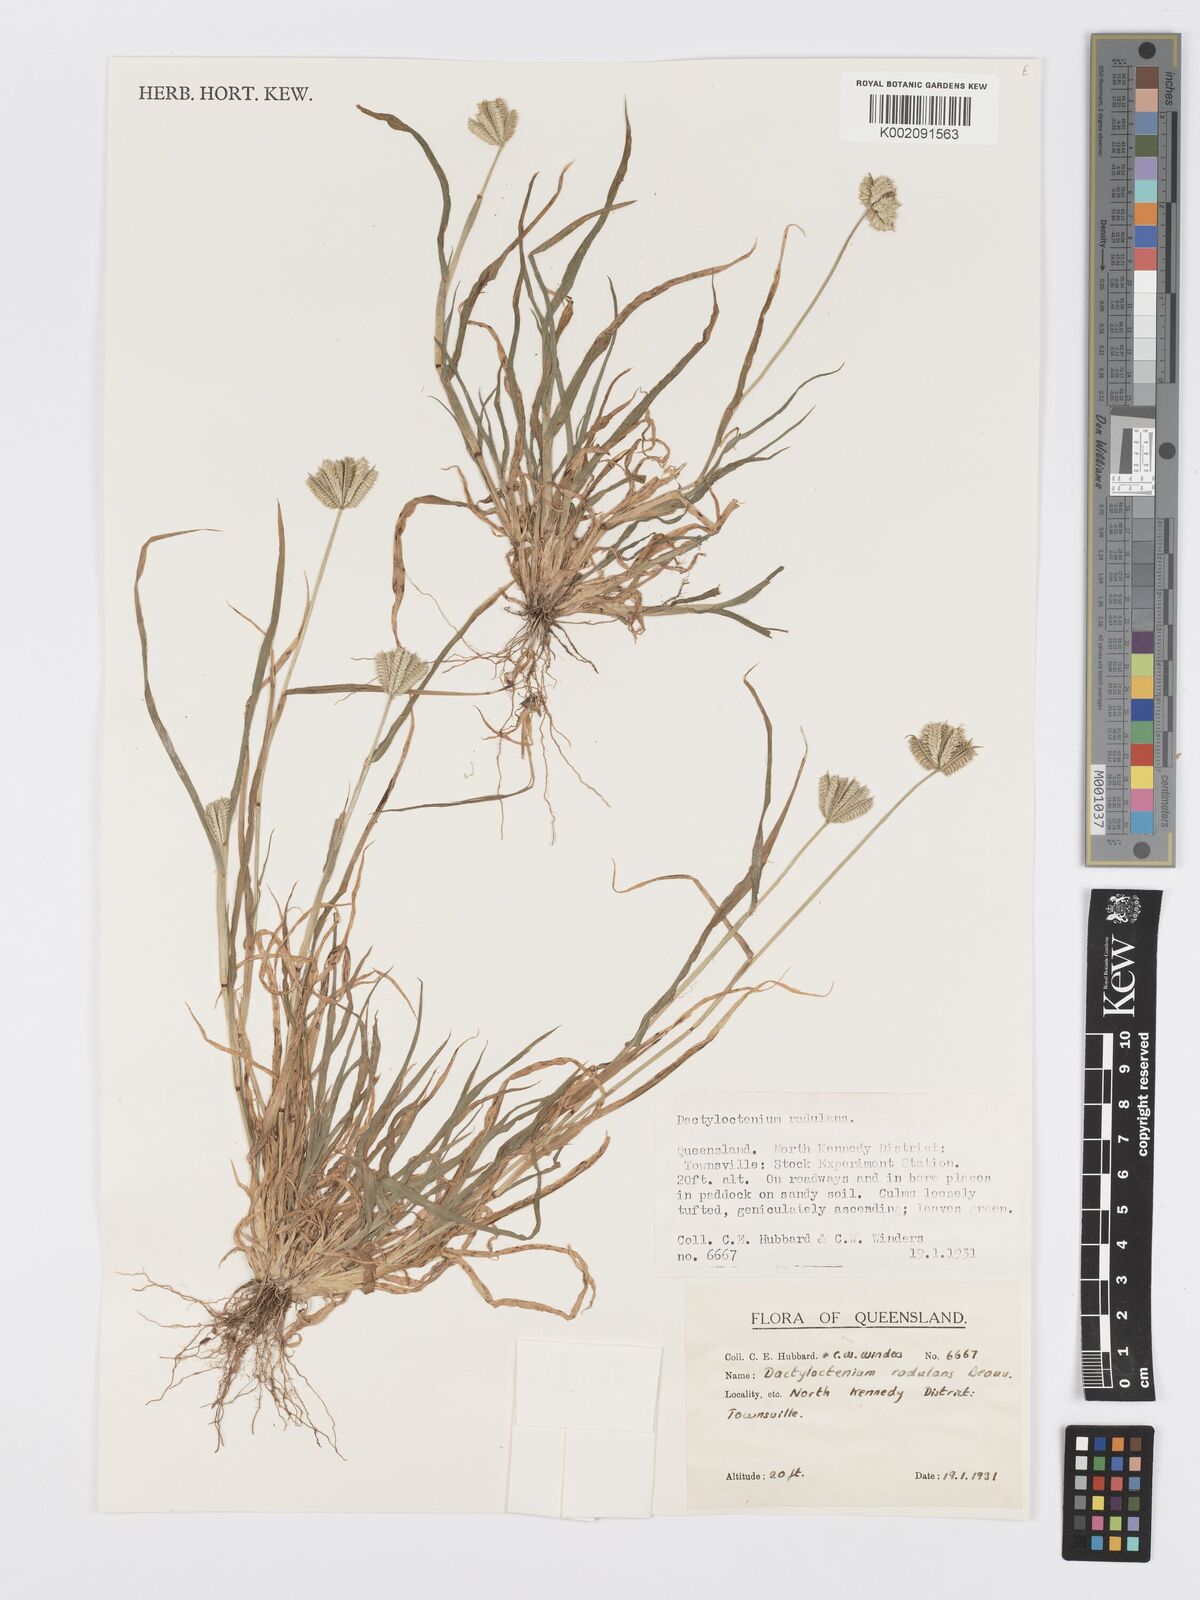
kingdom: Plantae
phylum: Tracheophyta
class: Liliopsida
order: Poales
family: Poaceae
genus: Dactyloctenium
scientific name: Dactyloctenium radulans
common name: Button-grass
